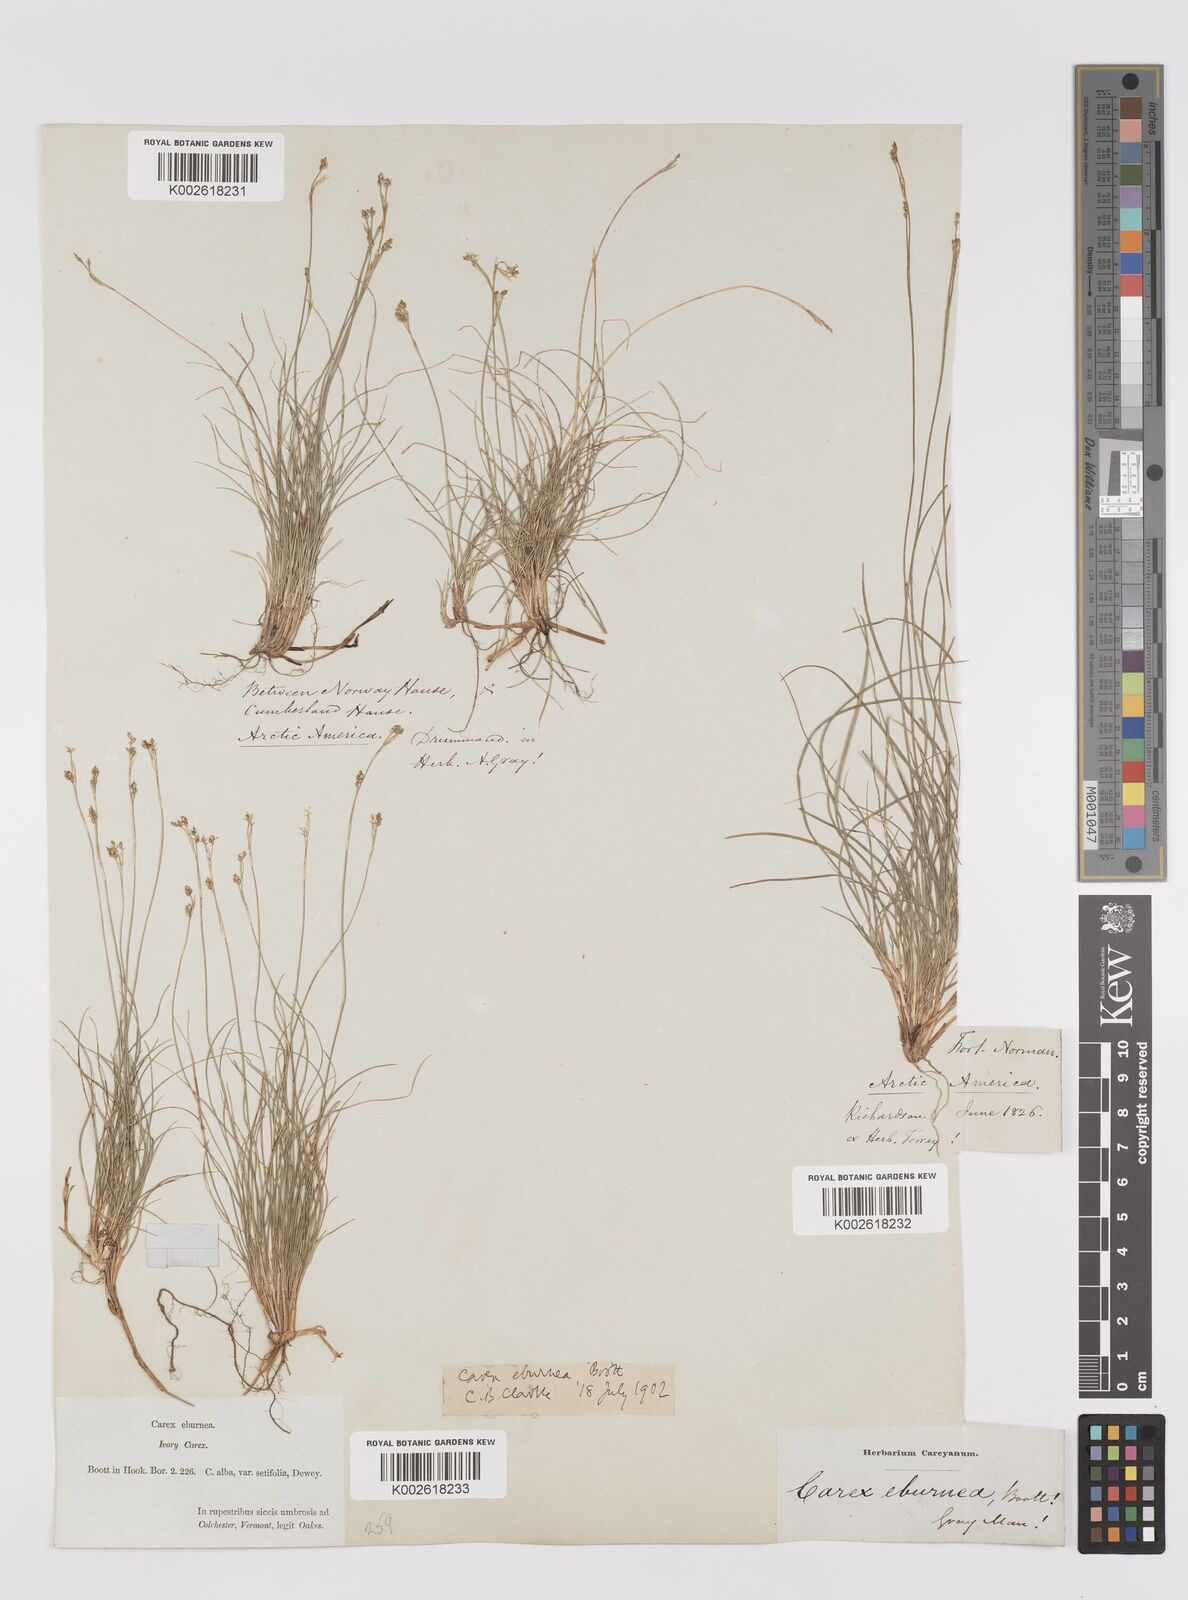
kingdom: Plantae
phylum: Tracheophyta
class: Liliopsida
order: Poales
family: Cyperaceae
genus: Carex
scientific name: Carex eburnea
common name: Bristle-leaved sedge
